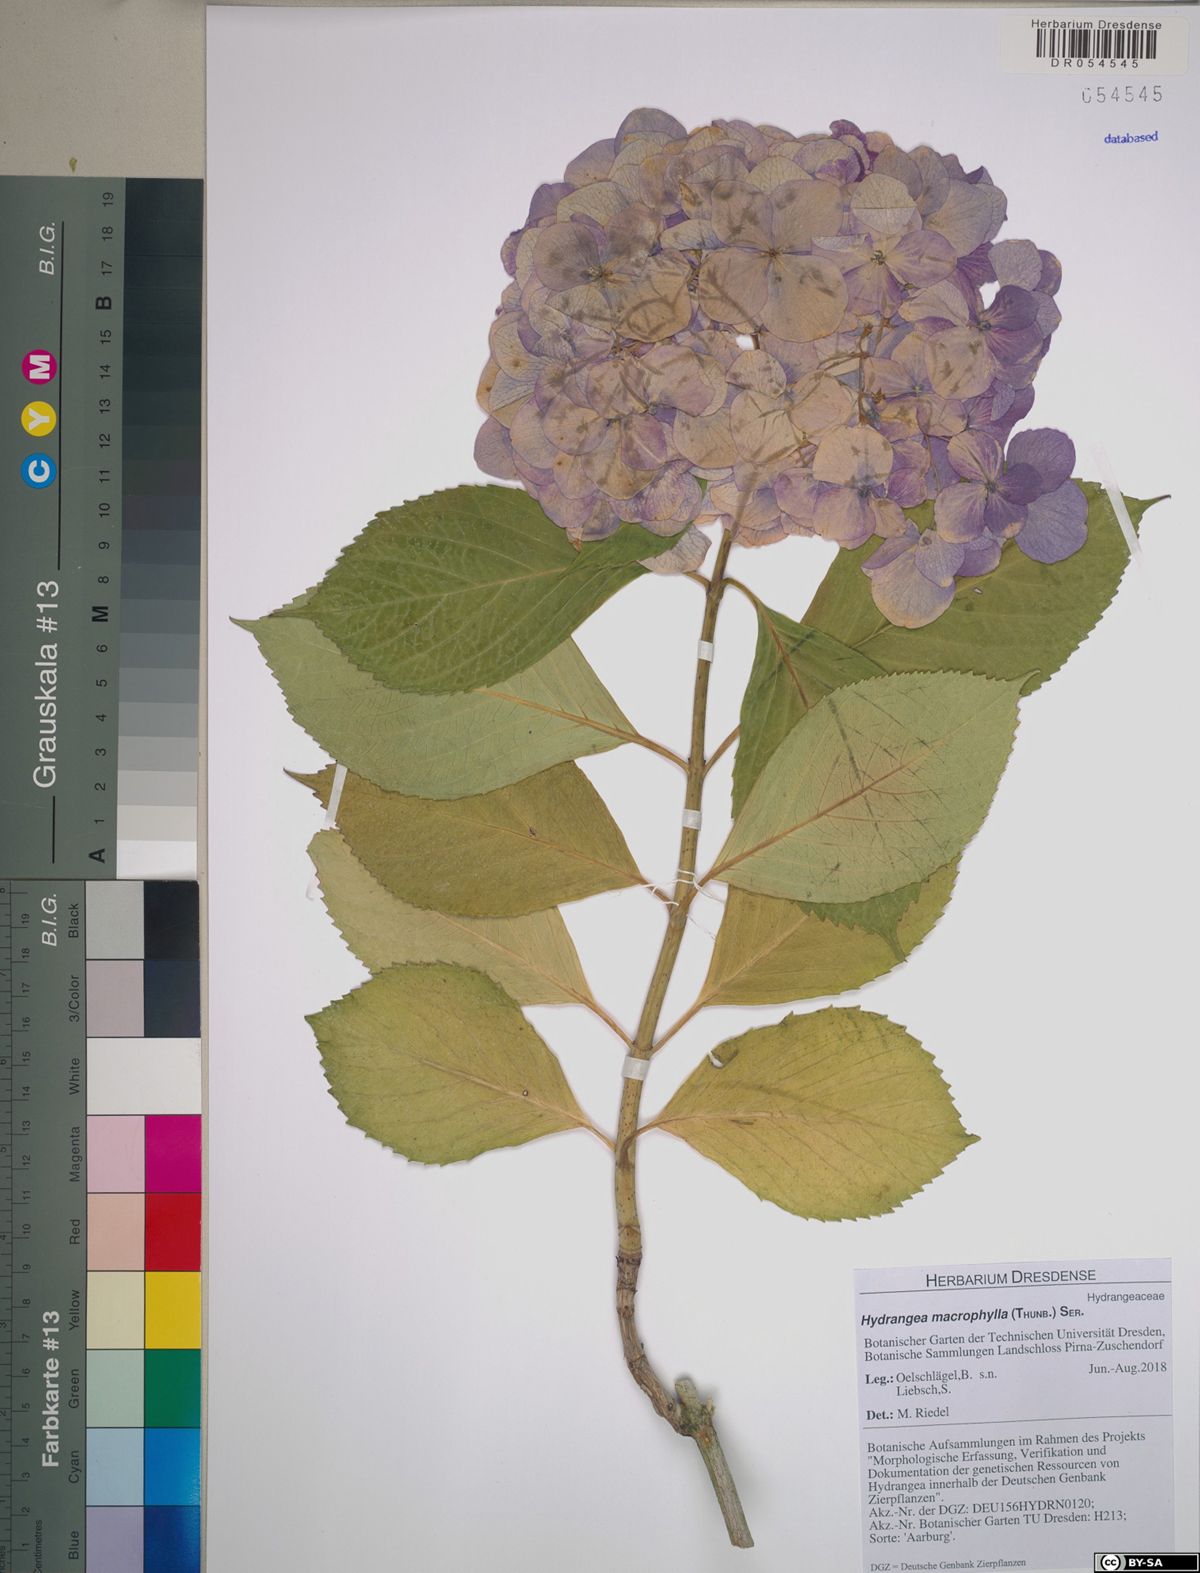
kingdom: Plantae
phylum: Tracheophyta
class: Magnoliopsida
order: Cornales
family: Hydrangeaceae
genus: Hydrangea
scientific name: Hydrangea macrophylla
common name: Hydrangea
